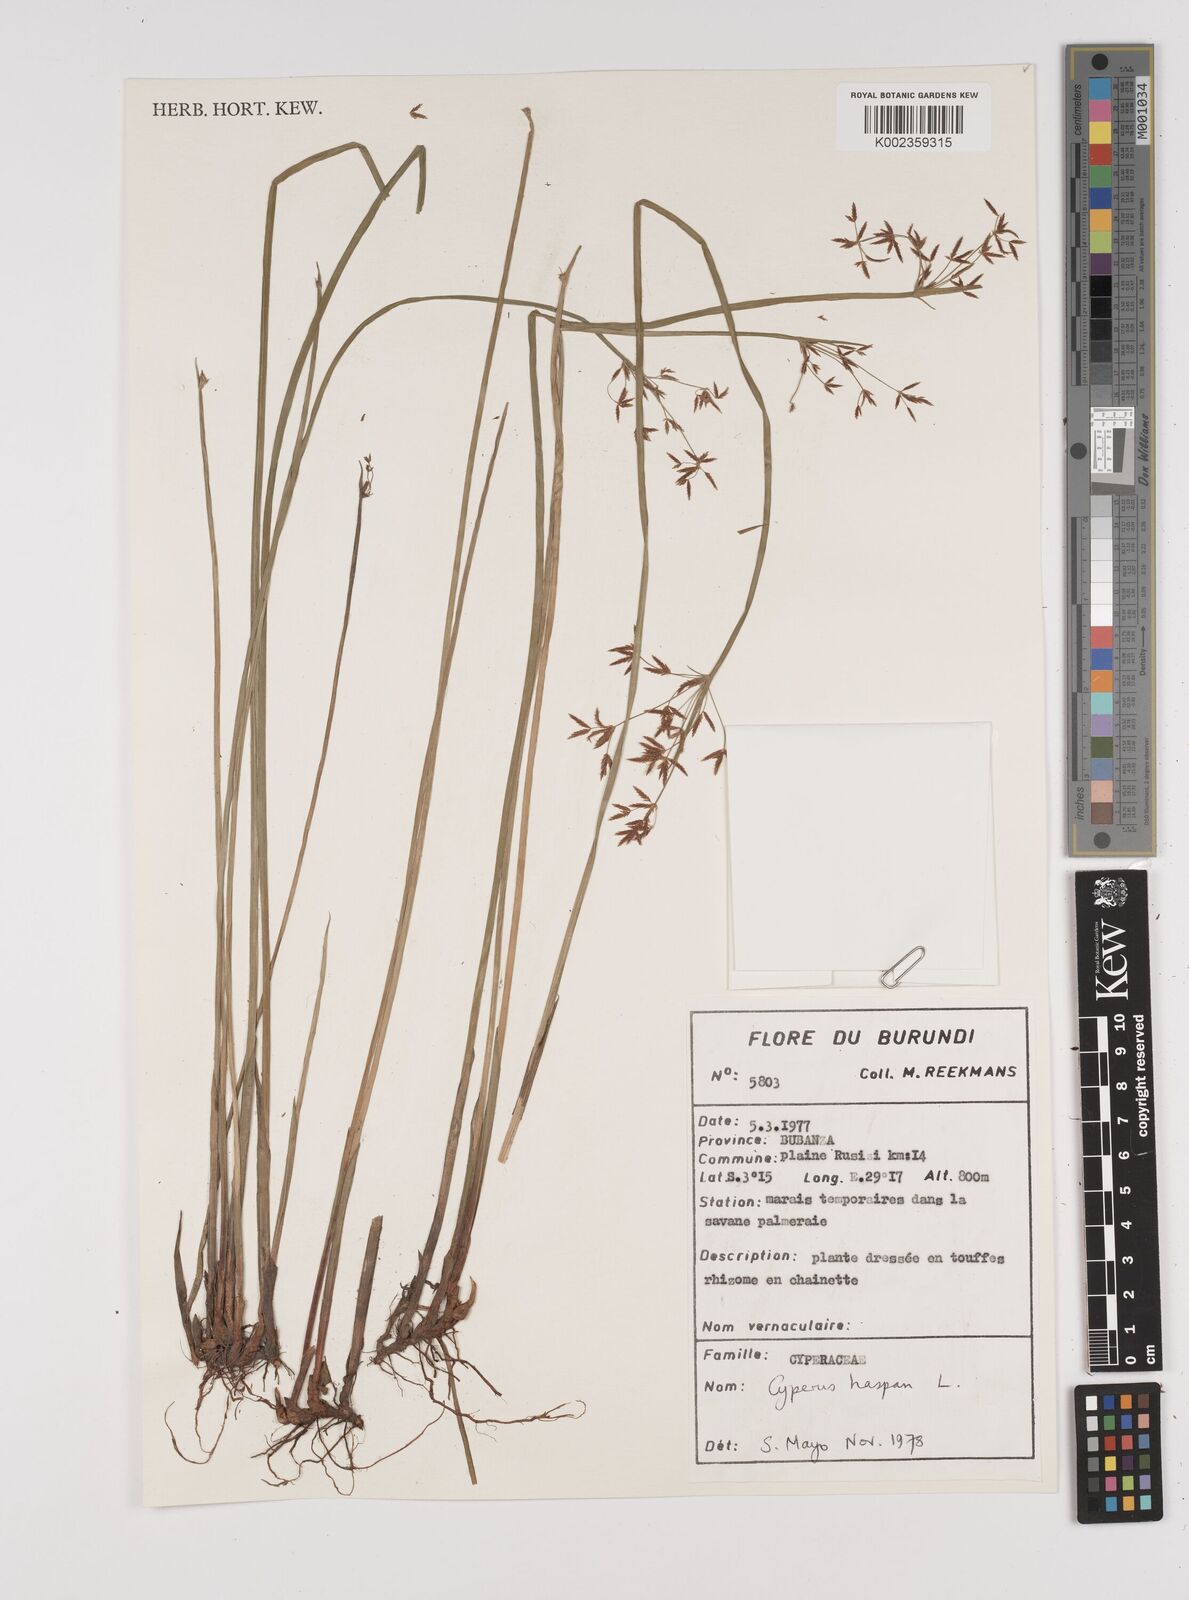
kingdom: Plantae
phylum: Tracheophyta
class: Liliopsida
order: Poales
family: Cyperaceae
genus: Cyperus
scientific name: Cyperus haspan
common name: Haspan flatsedge
